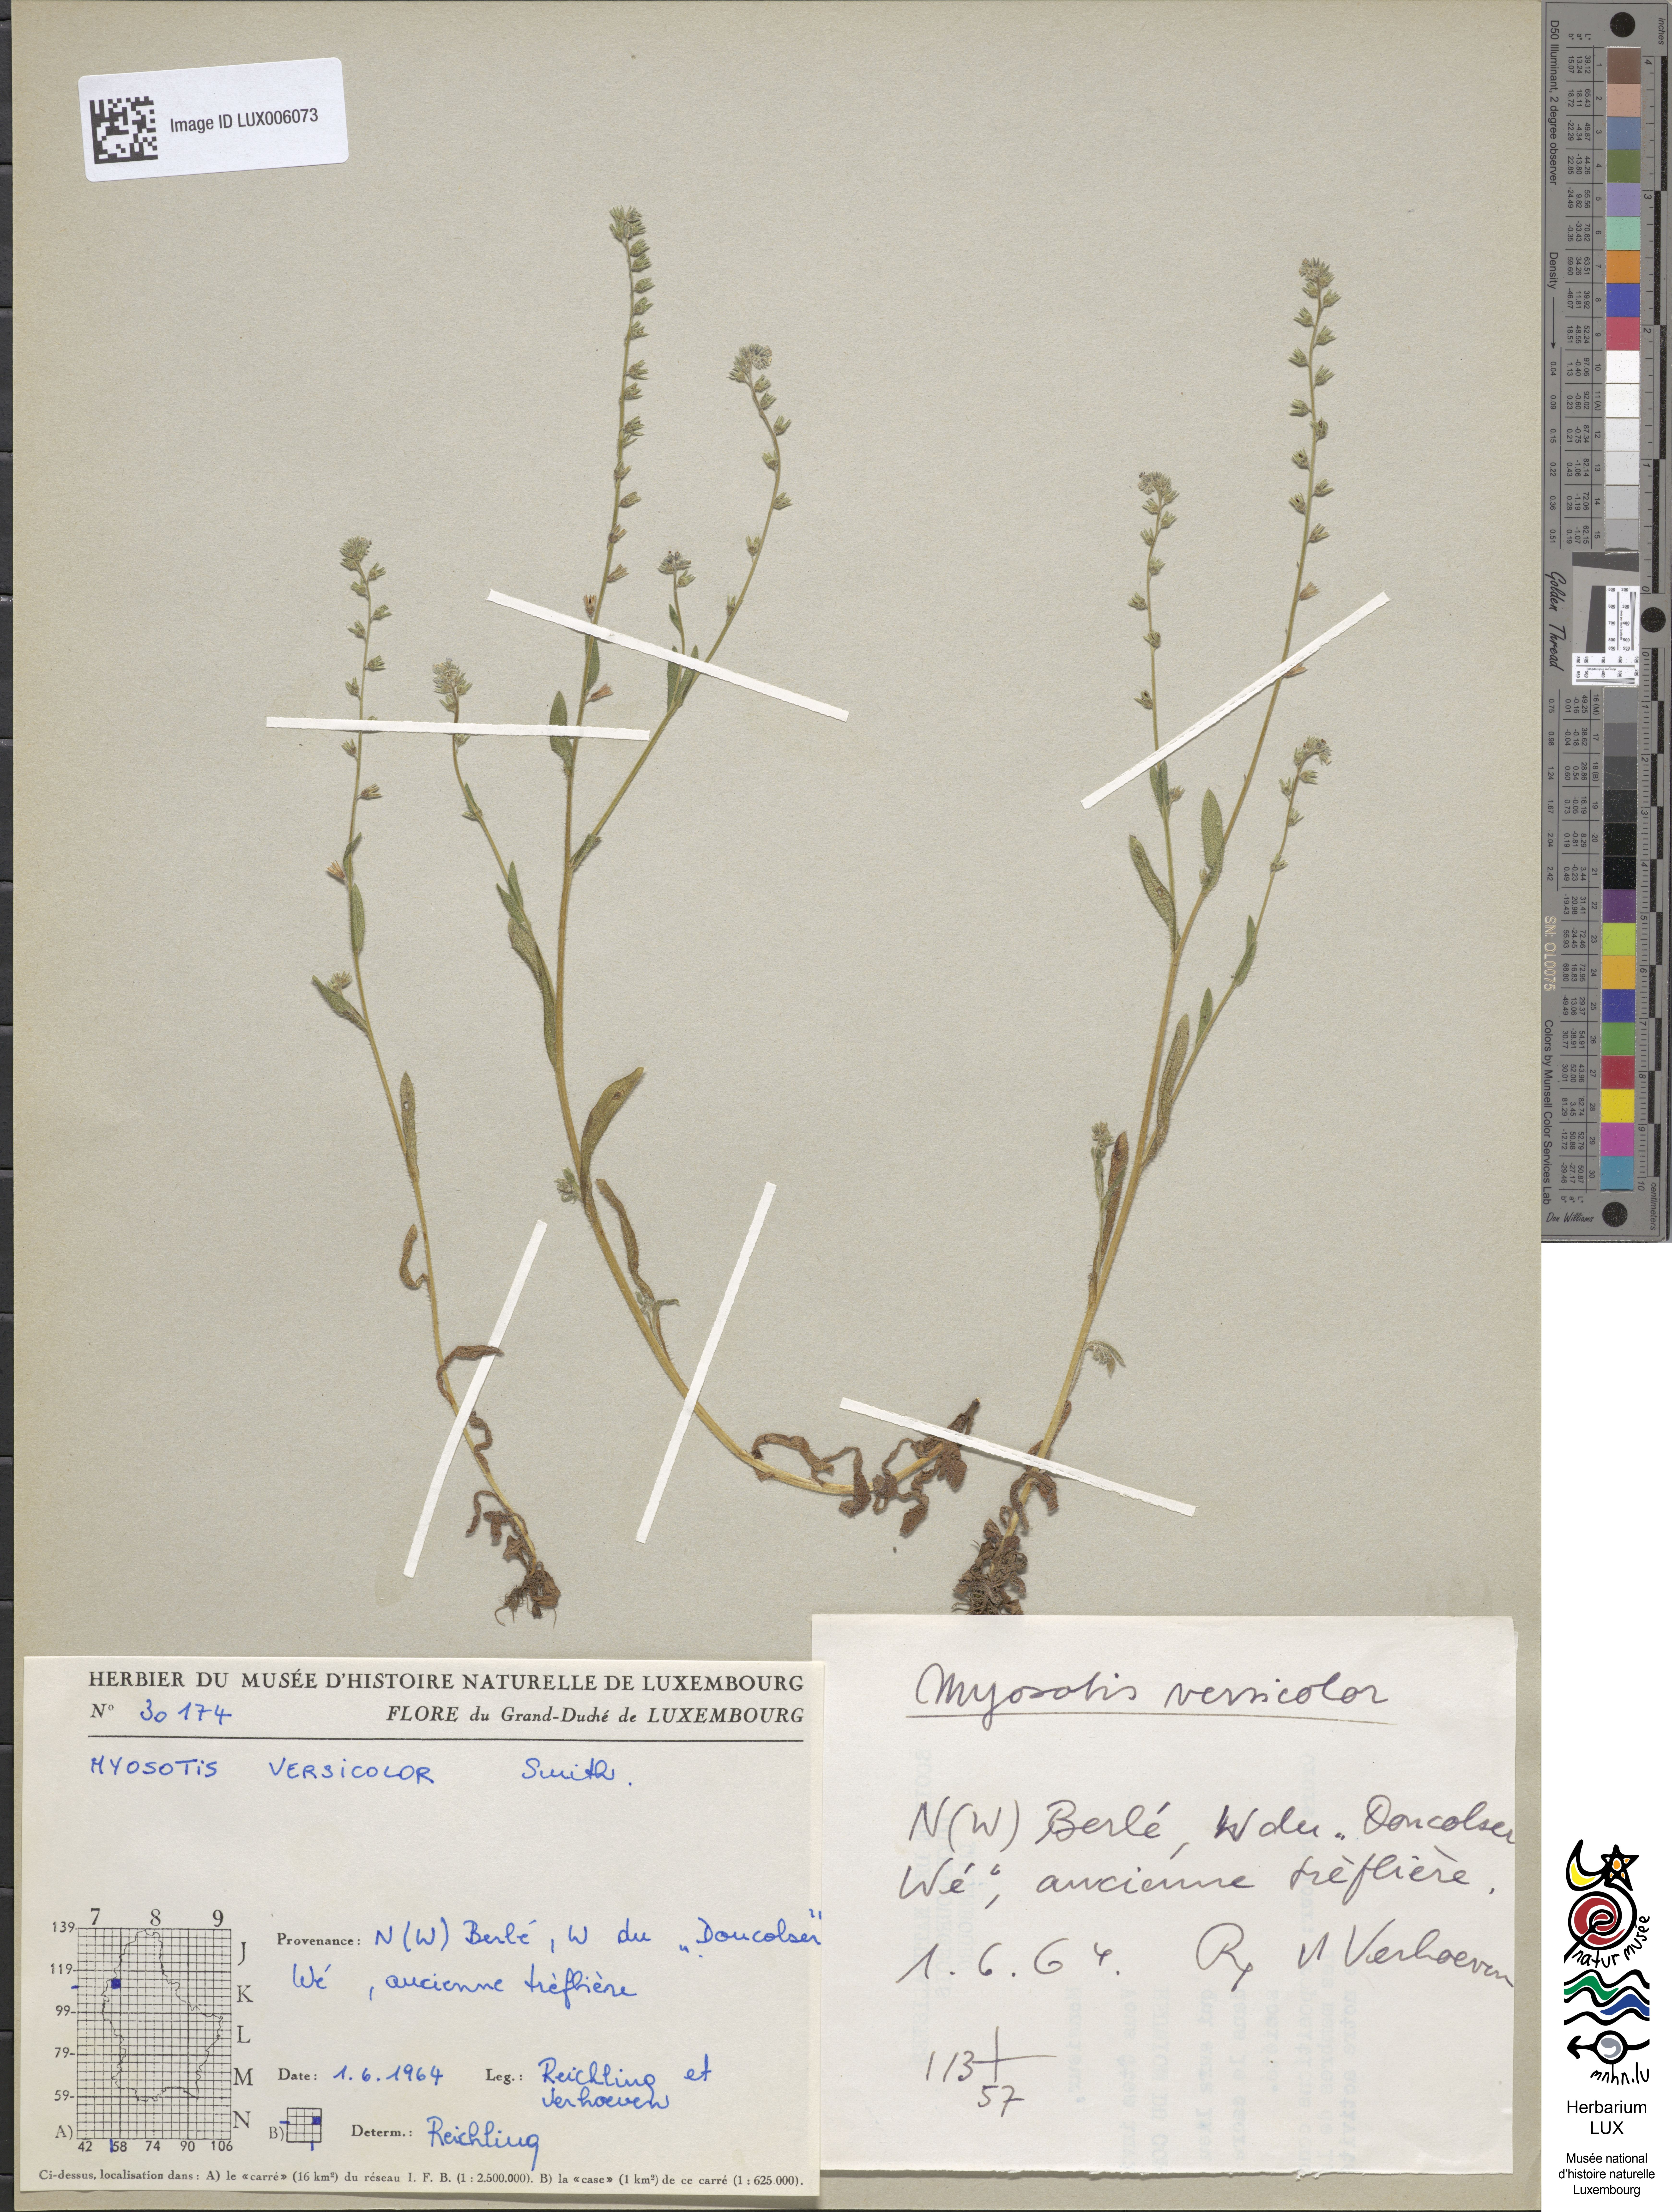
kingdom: Plantae
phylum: Tracheophyta
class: Magnoliopsida
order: Boraginales
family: Boraginaceae
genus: Myosotis
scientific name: Myosotis discolor
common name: Changing forget-me-not
